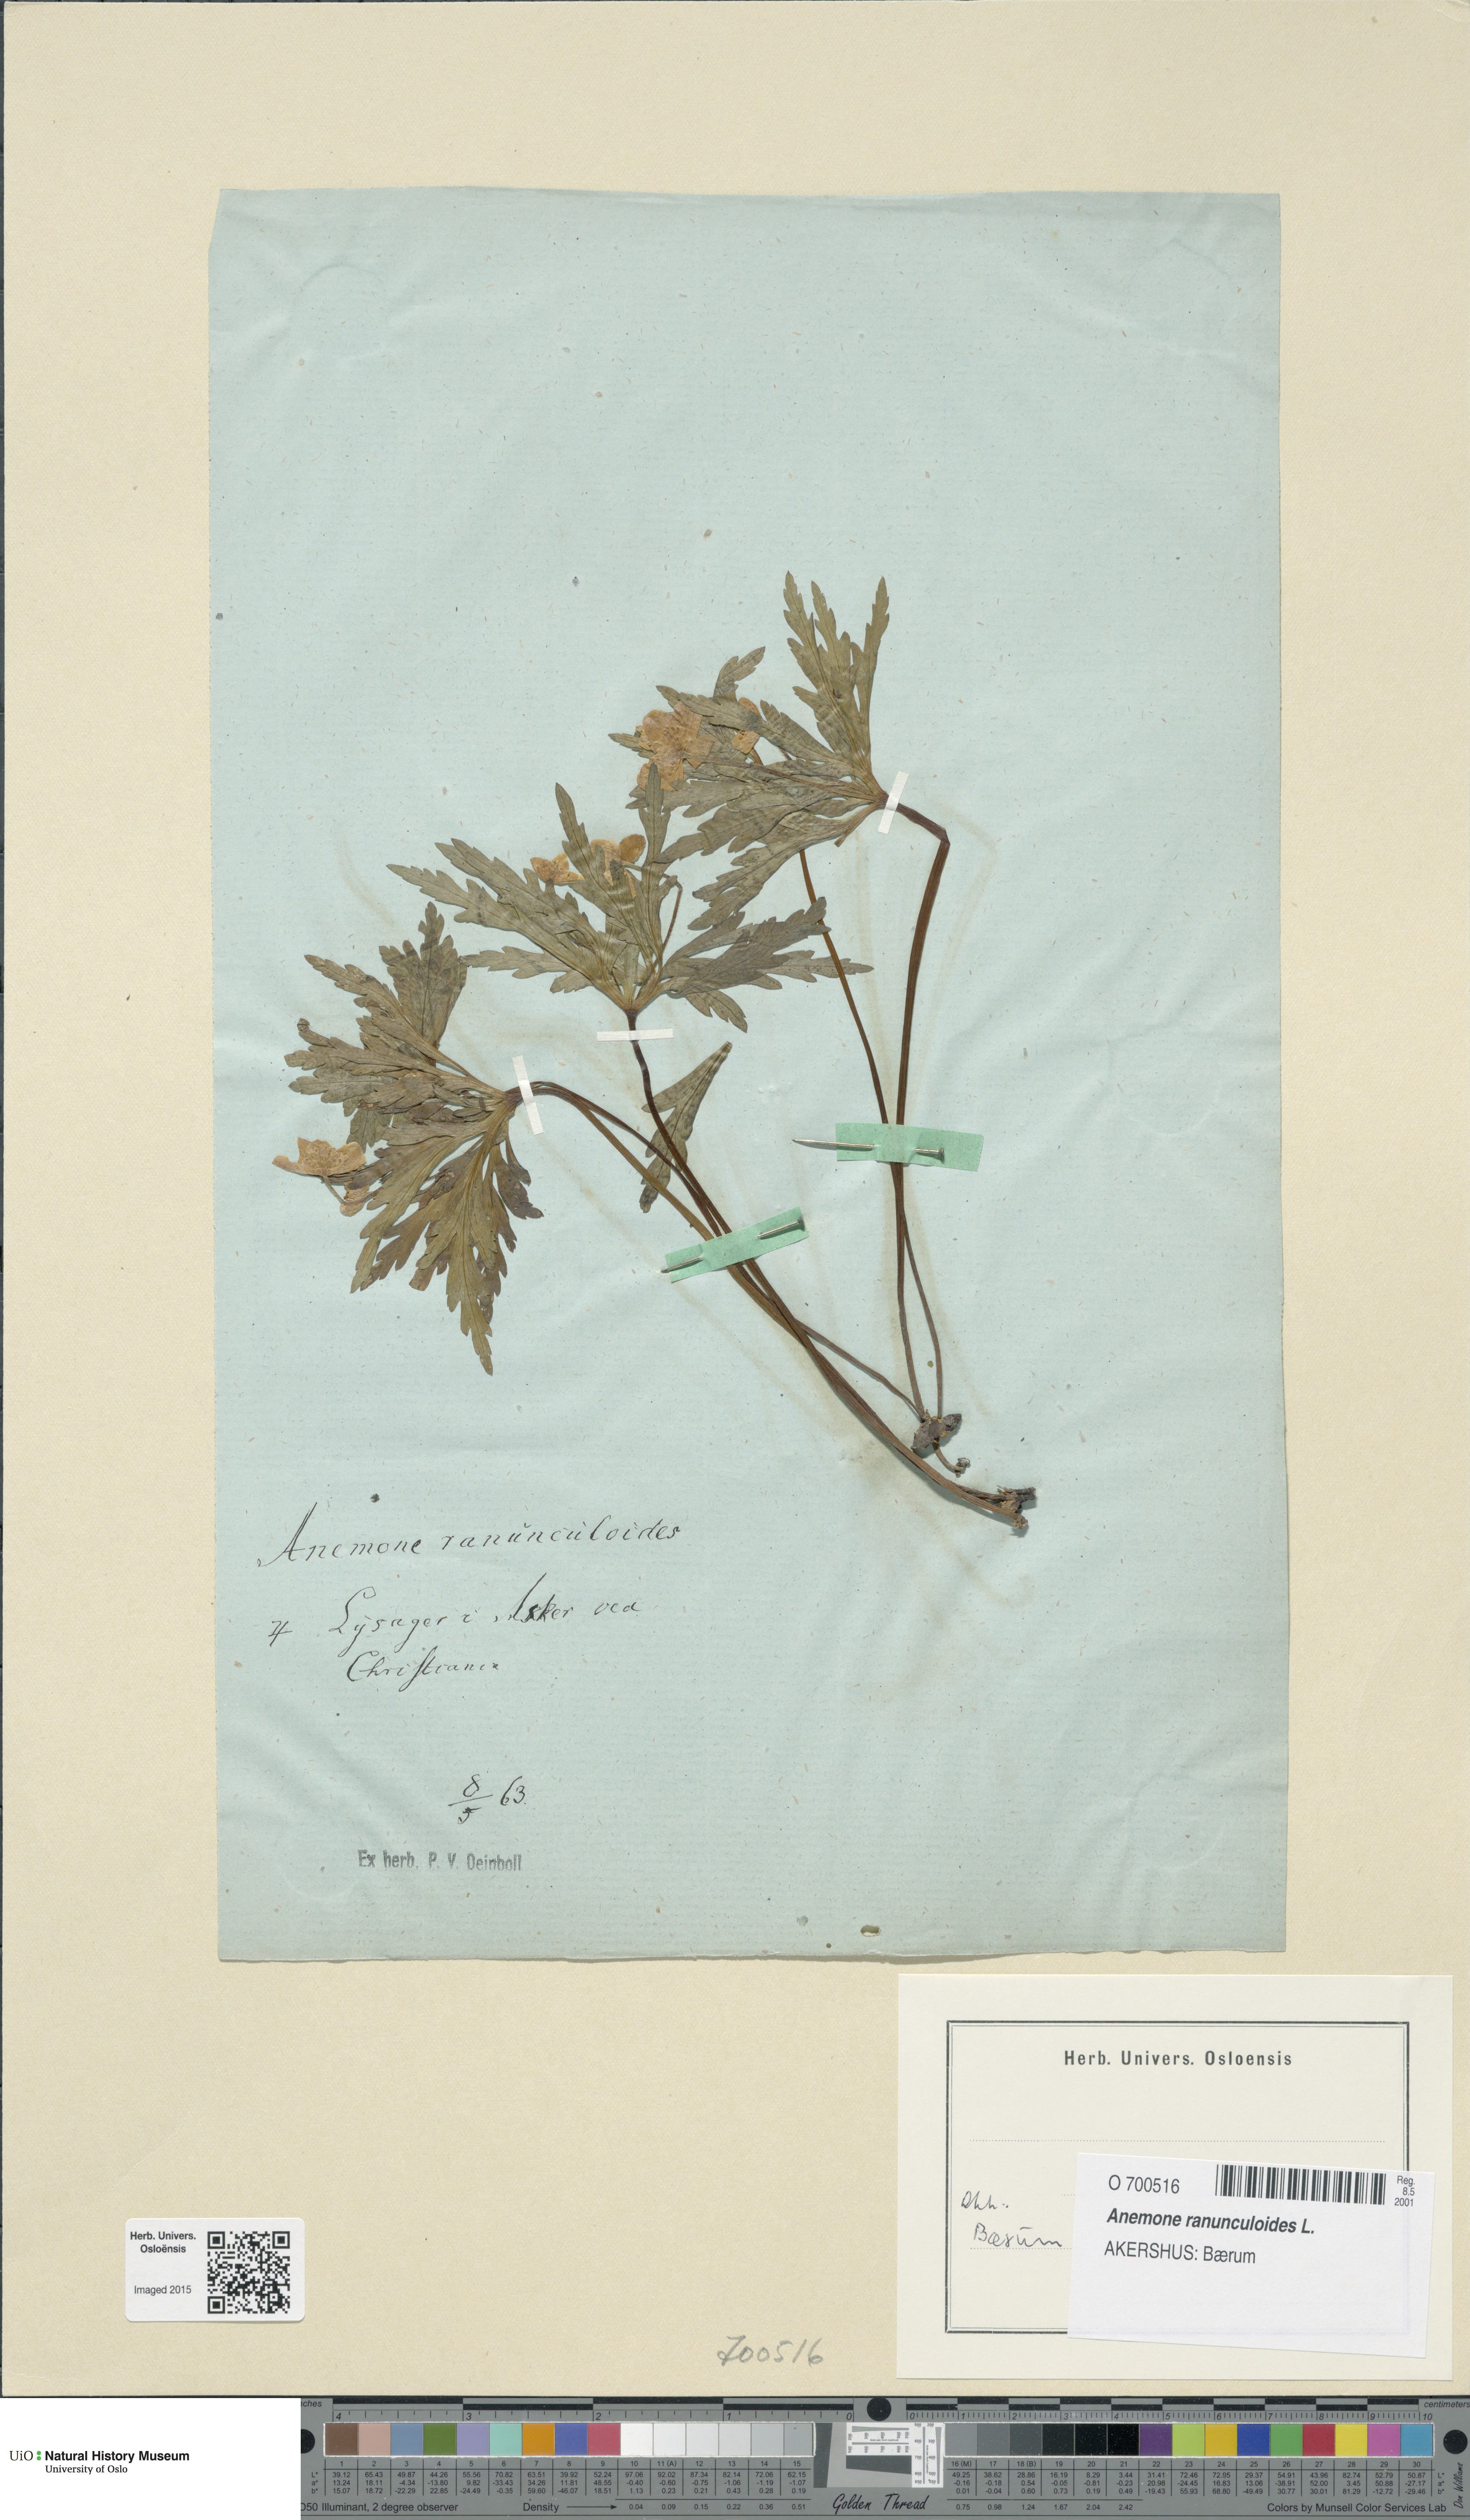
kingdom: Plantae
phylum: Tracheophyta
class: Magnoliopsida
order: Ranunculales
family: Ranunculaceae
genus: Anemone
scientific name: Anemone ranunculoides
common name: Yellow anemone
